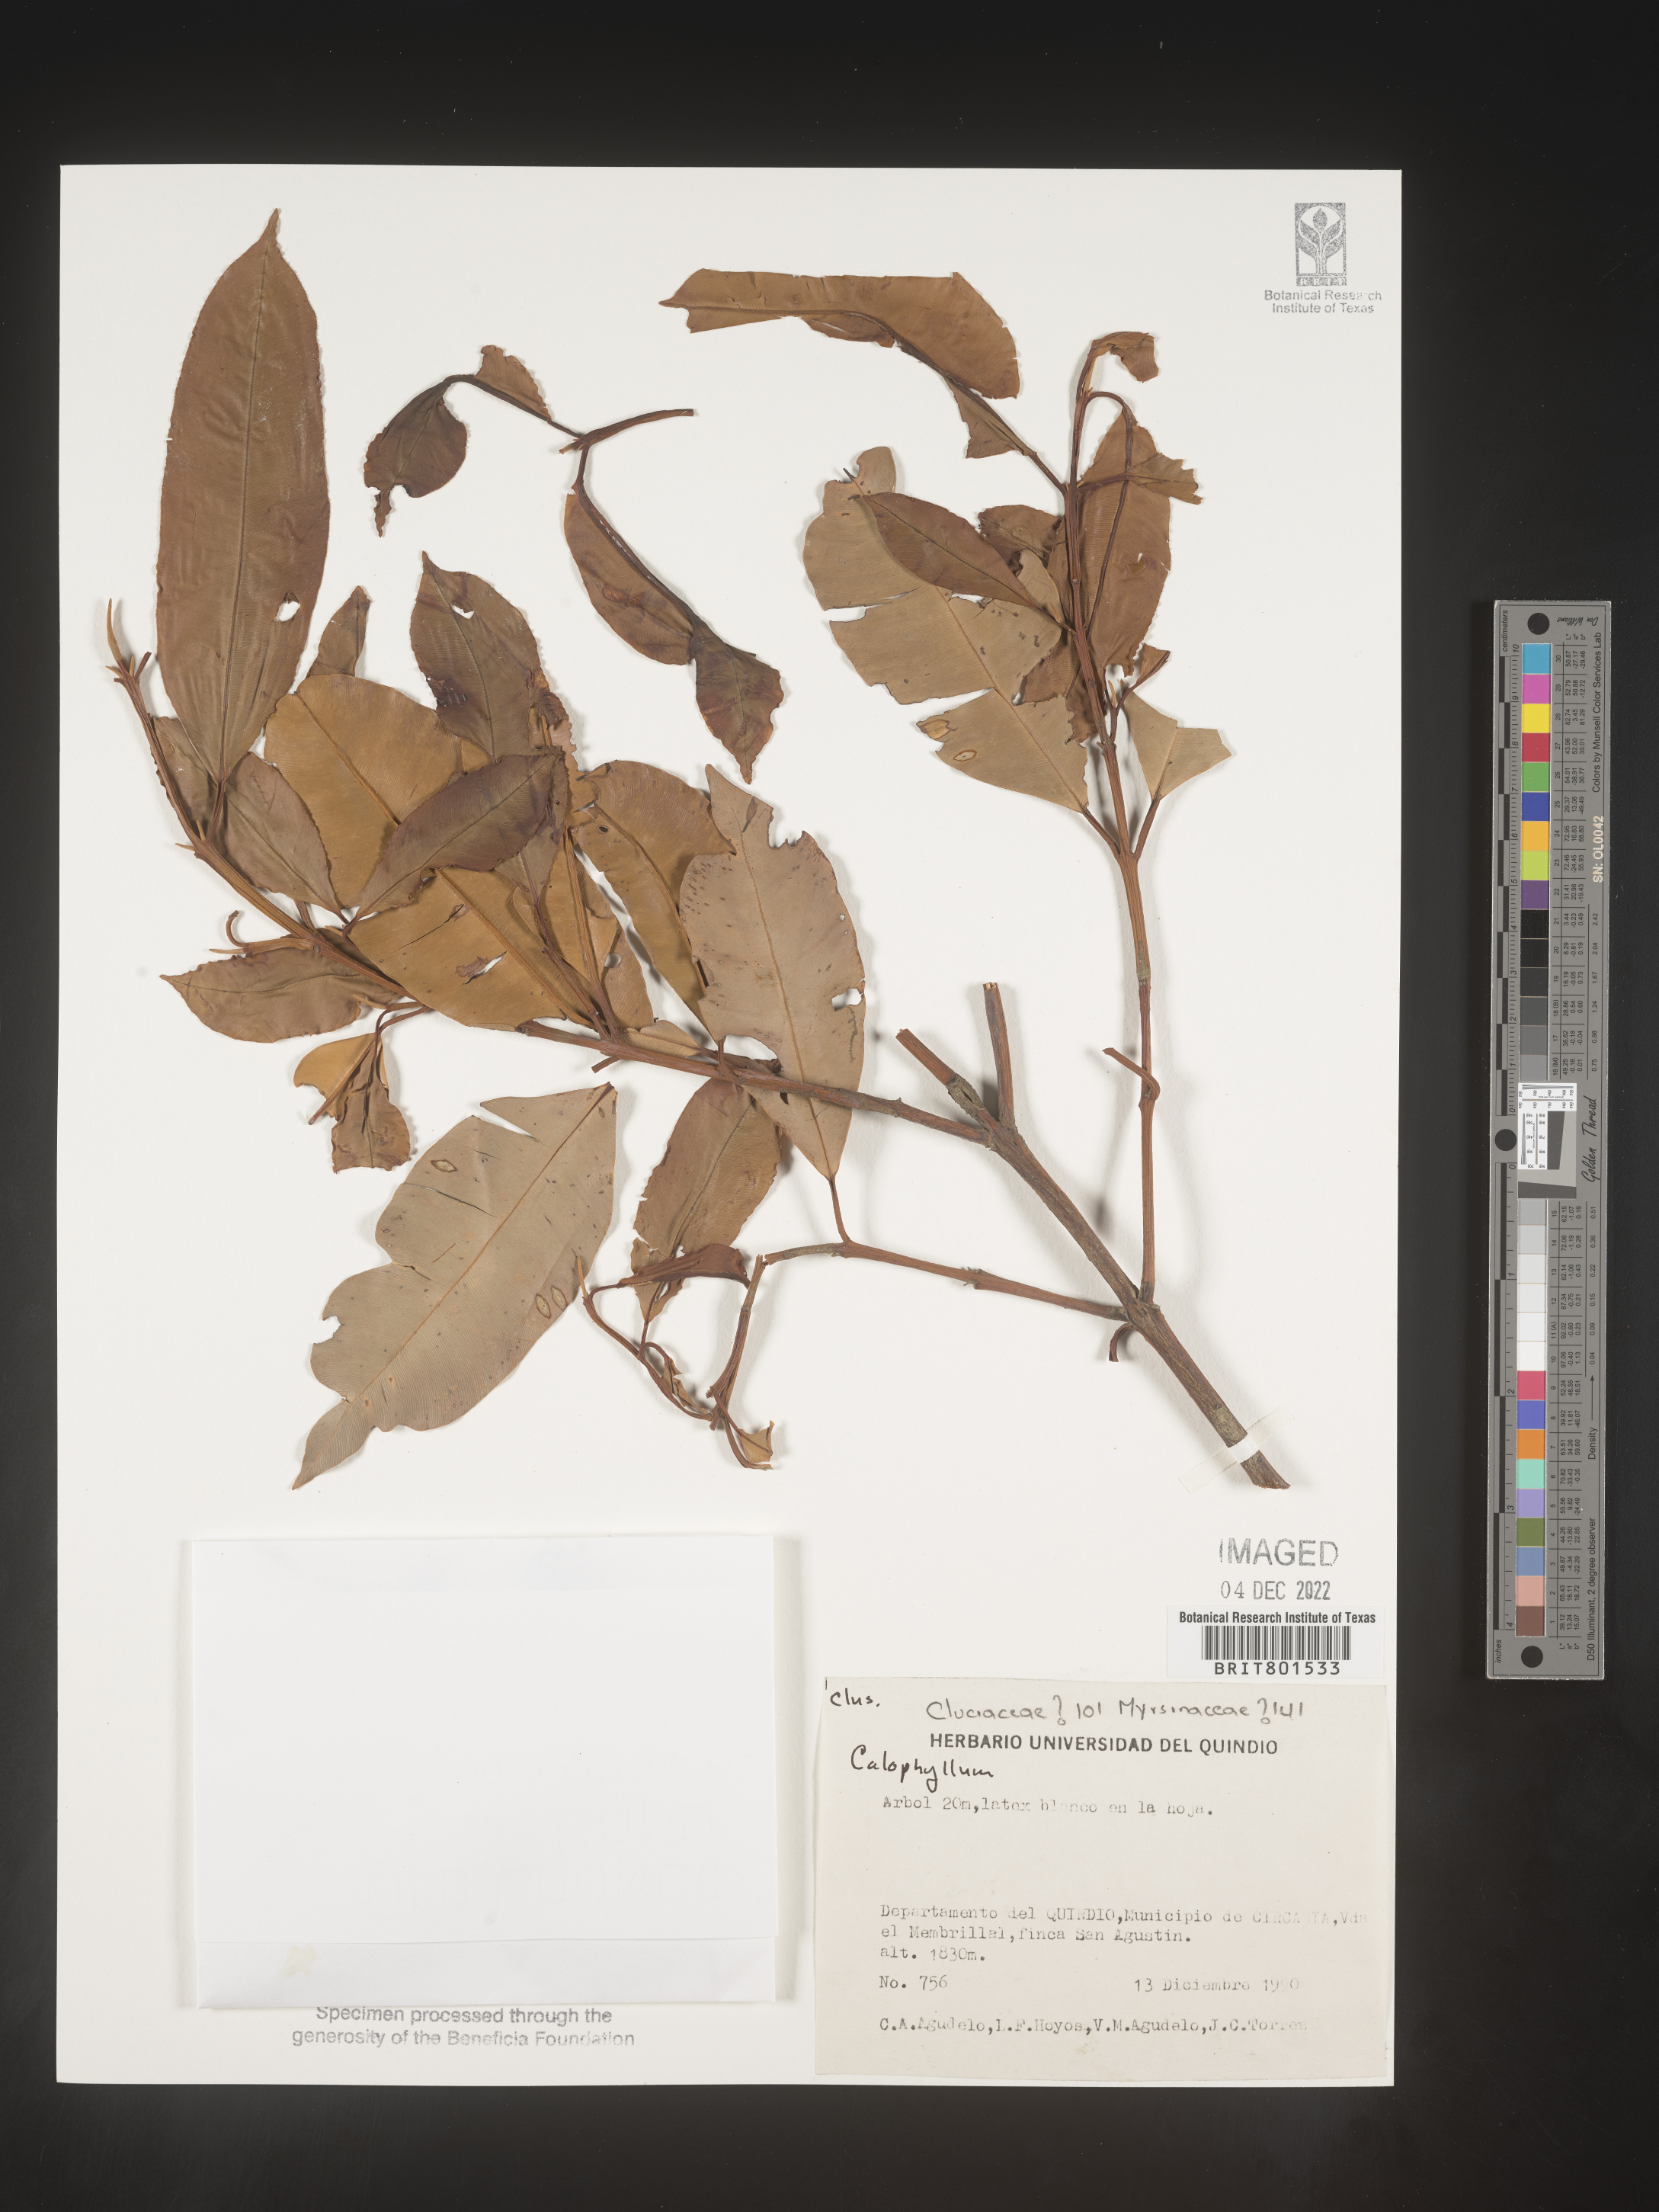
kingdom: Plantae
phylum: Tracheophyta
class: Magnoliopsida
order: Malpighiales
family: Calophyllaceae
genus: Calophyllum
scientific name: Calophyllum
